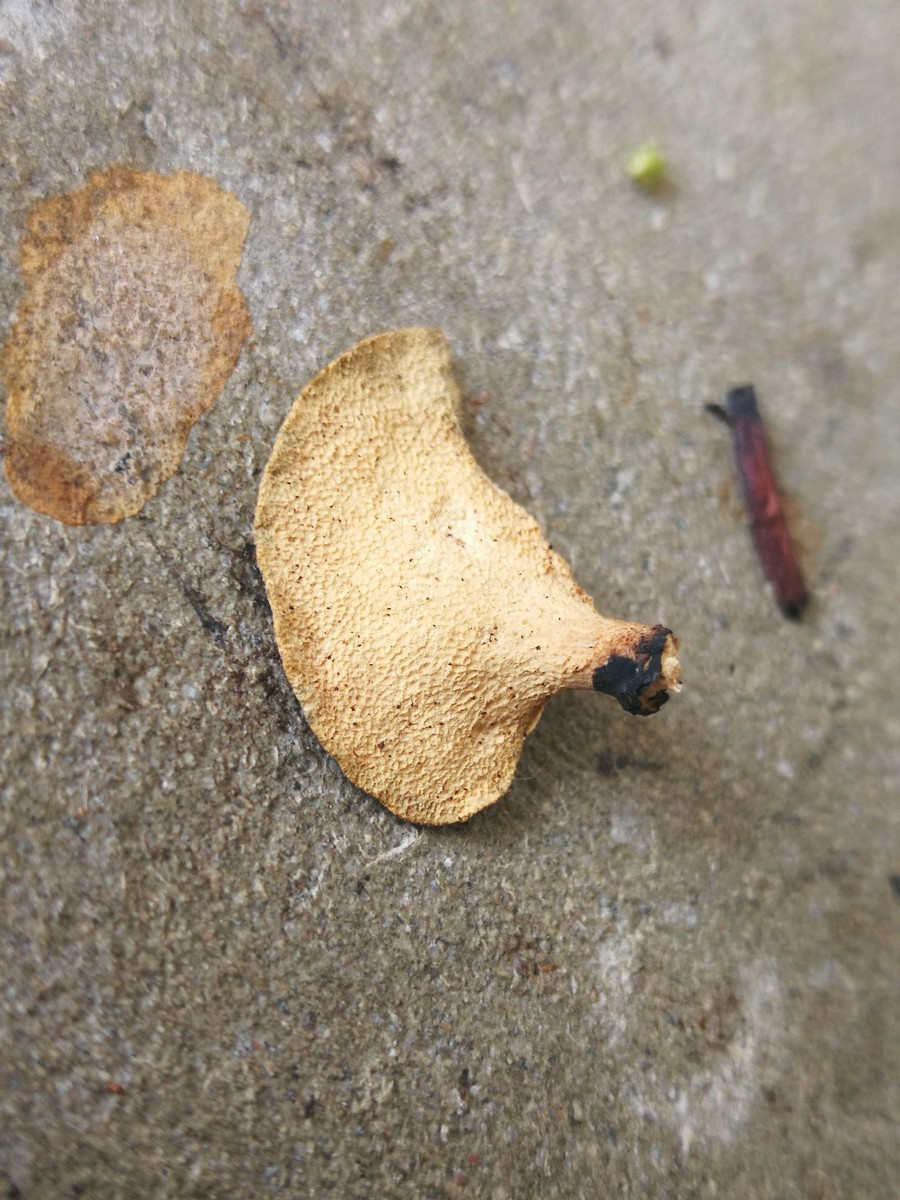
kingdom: Fungi
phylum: Basidiomycota
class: Agaricomycetes
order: Polyporales
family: Polyporaceae
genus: Cerioporus
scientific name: Cerioporus varius
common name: foranderlig stilkporesvamp
